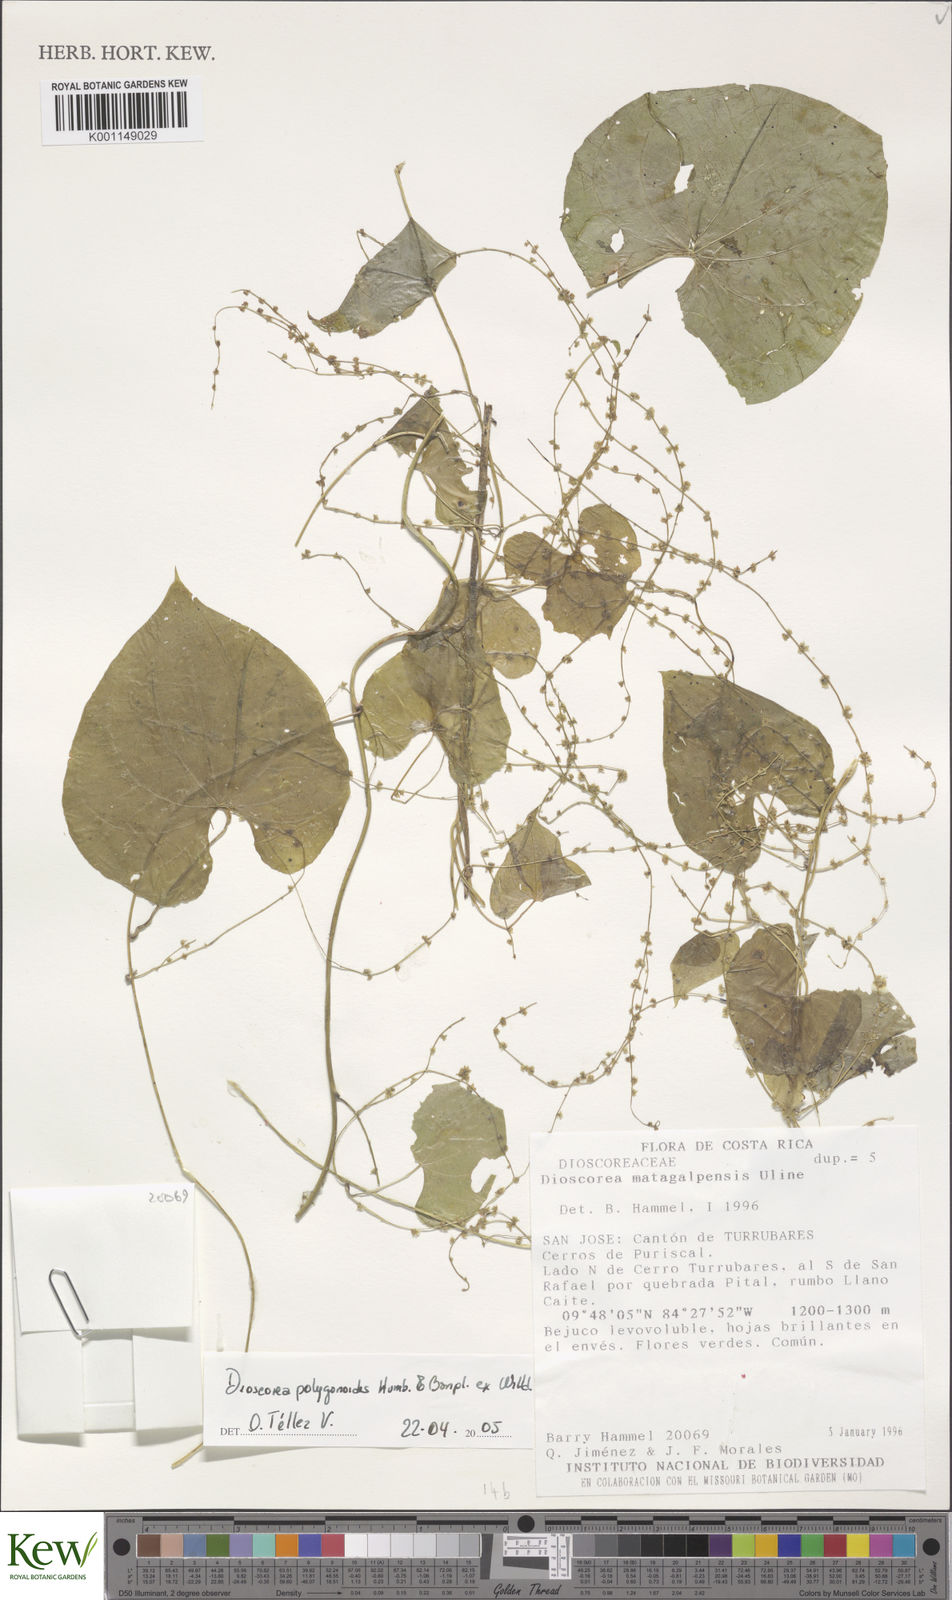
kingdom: Plantae
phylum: Tracheophyta
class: Liliopsida
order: Dioscoreales
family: Dioscoreaceae
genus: Dioscorea
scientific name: Dioscorea polygonoides
